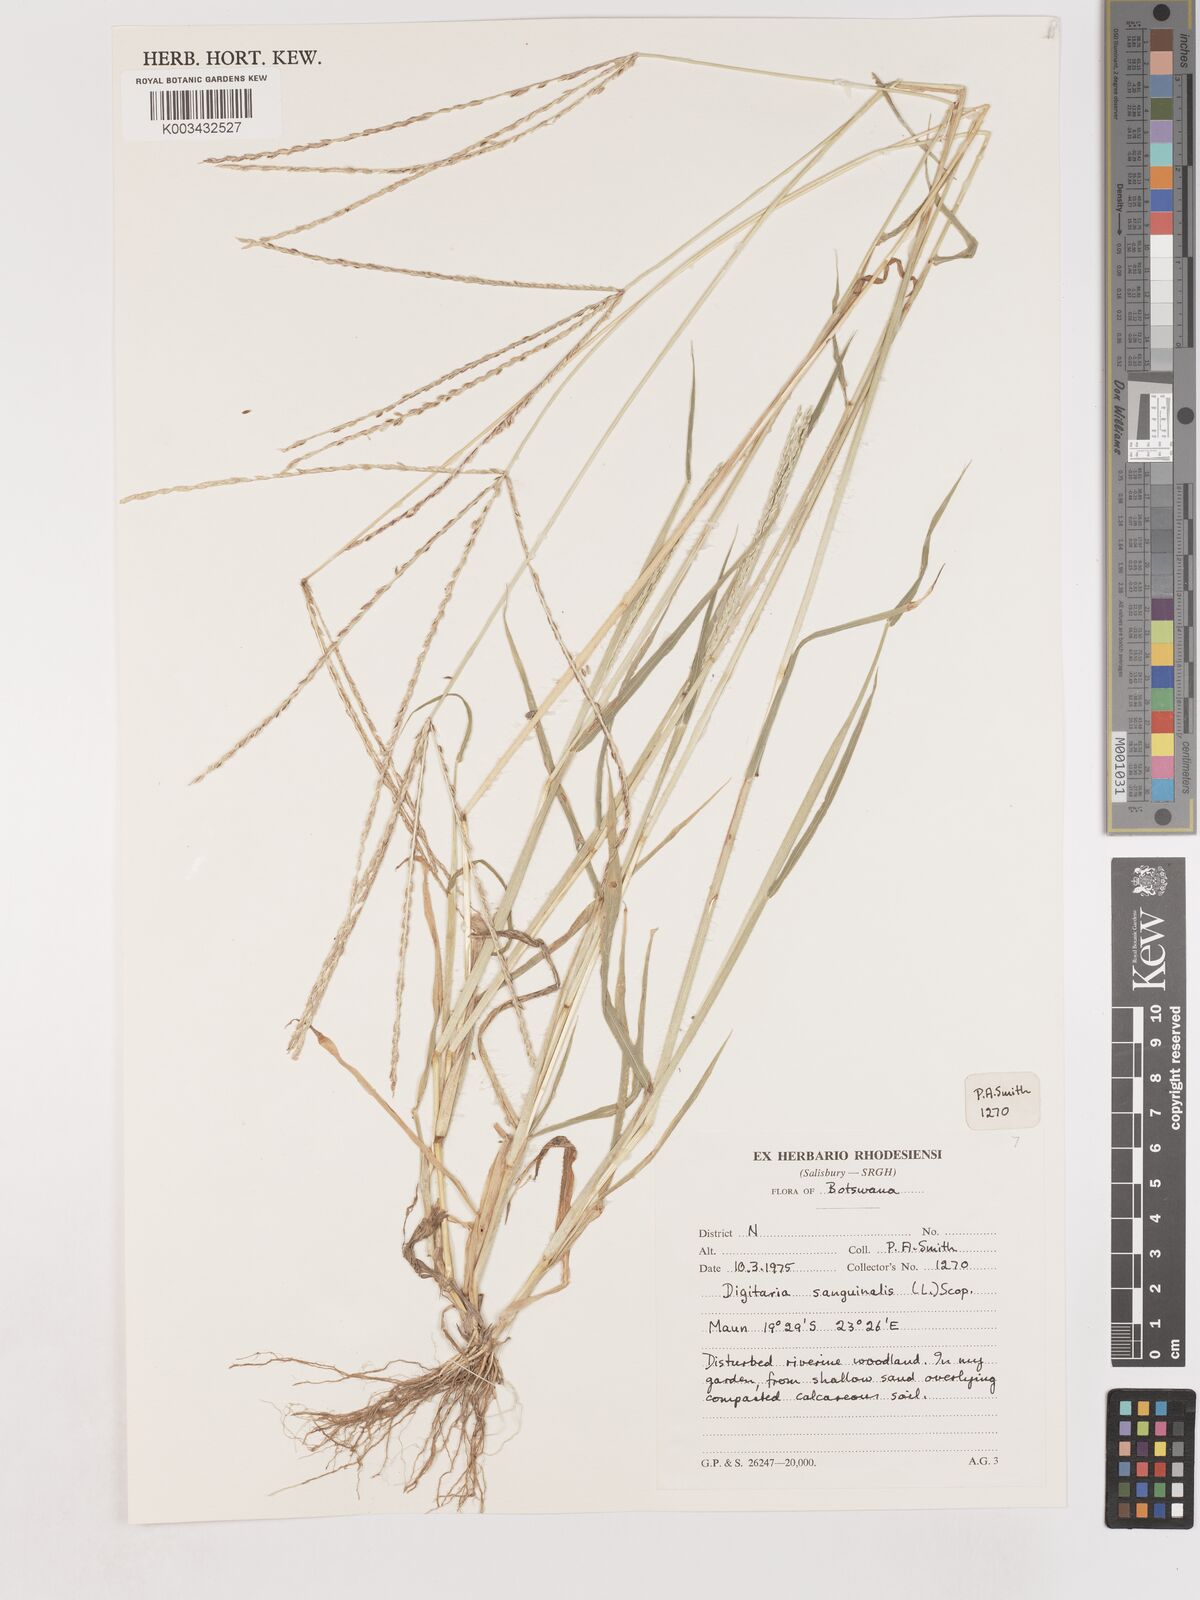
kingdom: Plantae
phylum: Tracheophyta
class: Liliopsida
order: Poales
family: Poaceae
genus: Digitaria
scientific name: Digitaria sanguinalis
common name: Hairy crabgrass
